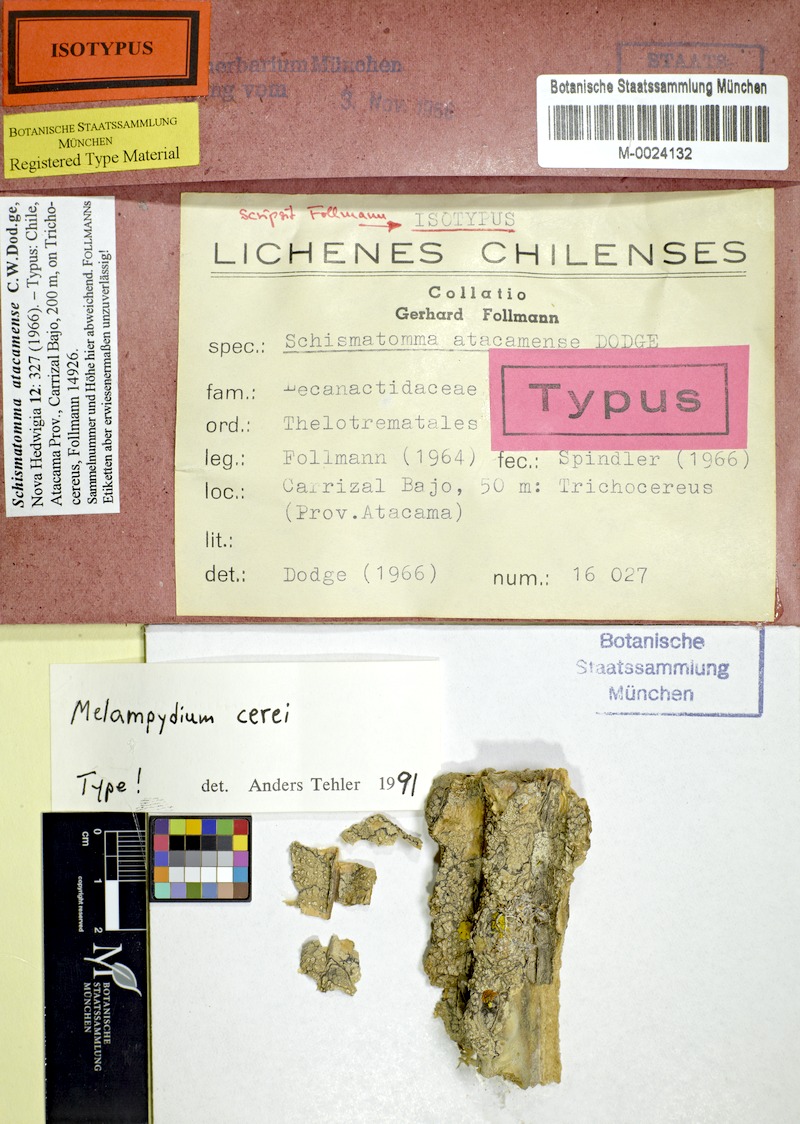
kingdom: Fungi
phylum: Ascomycota
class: Arthoniomycetes
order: Arthoniales
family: Roccellographaceae
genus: Fulvophyton
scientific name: Fulvophyton cerei
